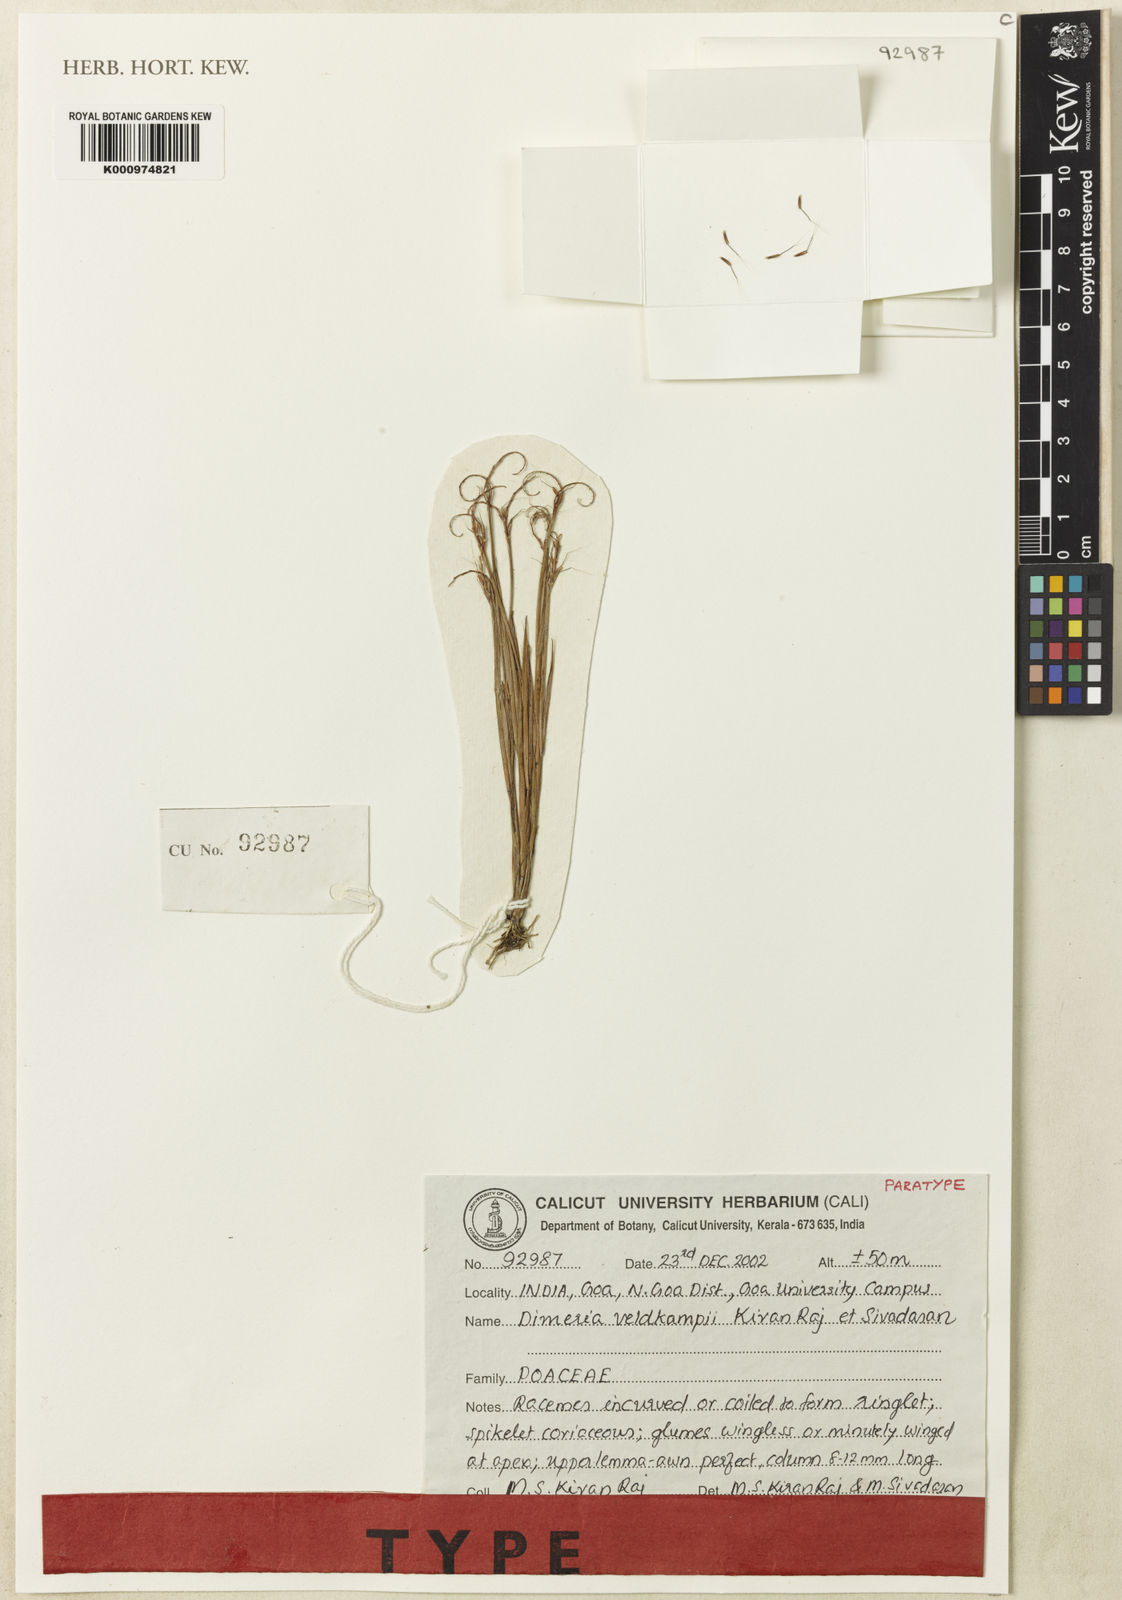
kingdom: Plantae
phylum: Tracheophyta
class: Liliopsida
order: Poales
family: Poaceae
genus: Dimeria
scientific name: Dimeria veldkampii
